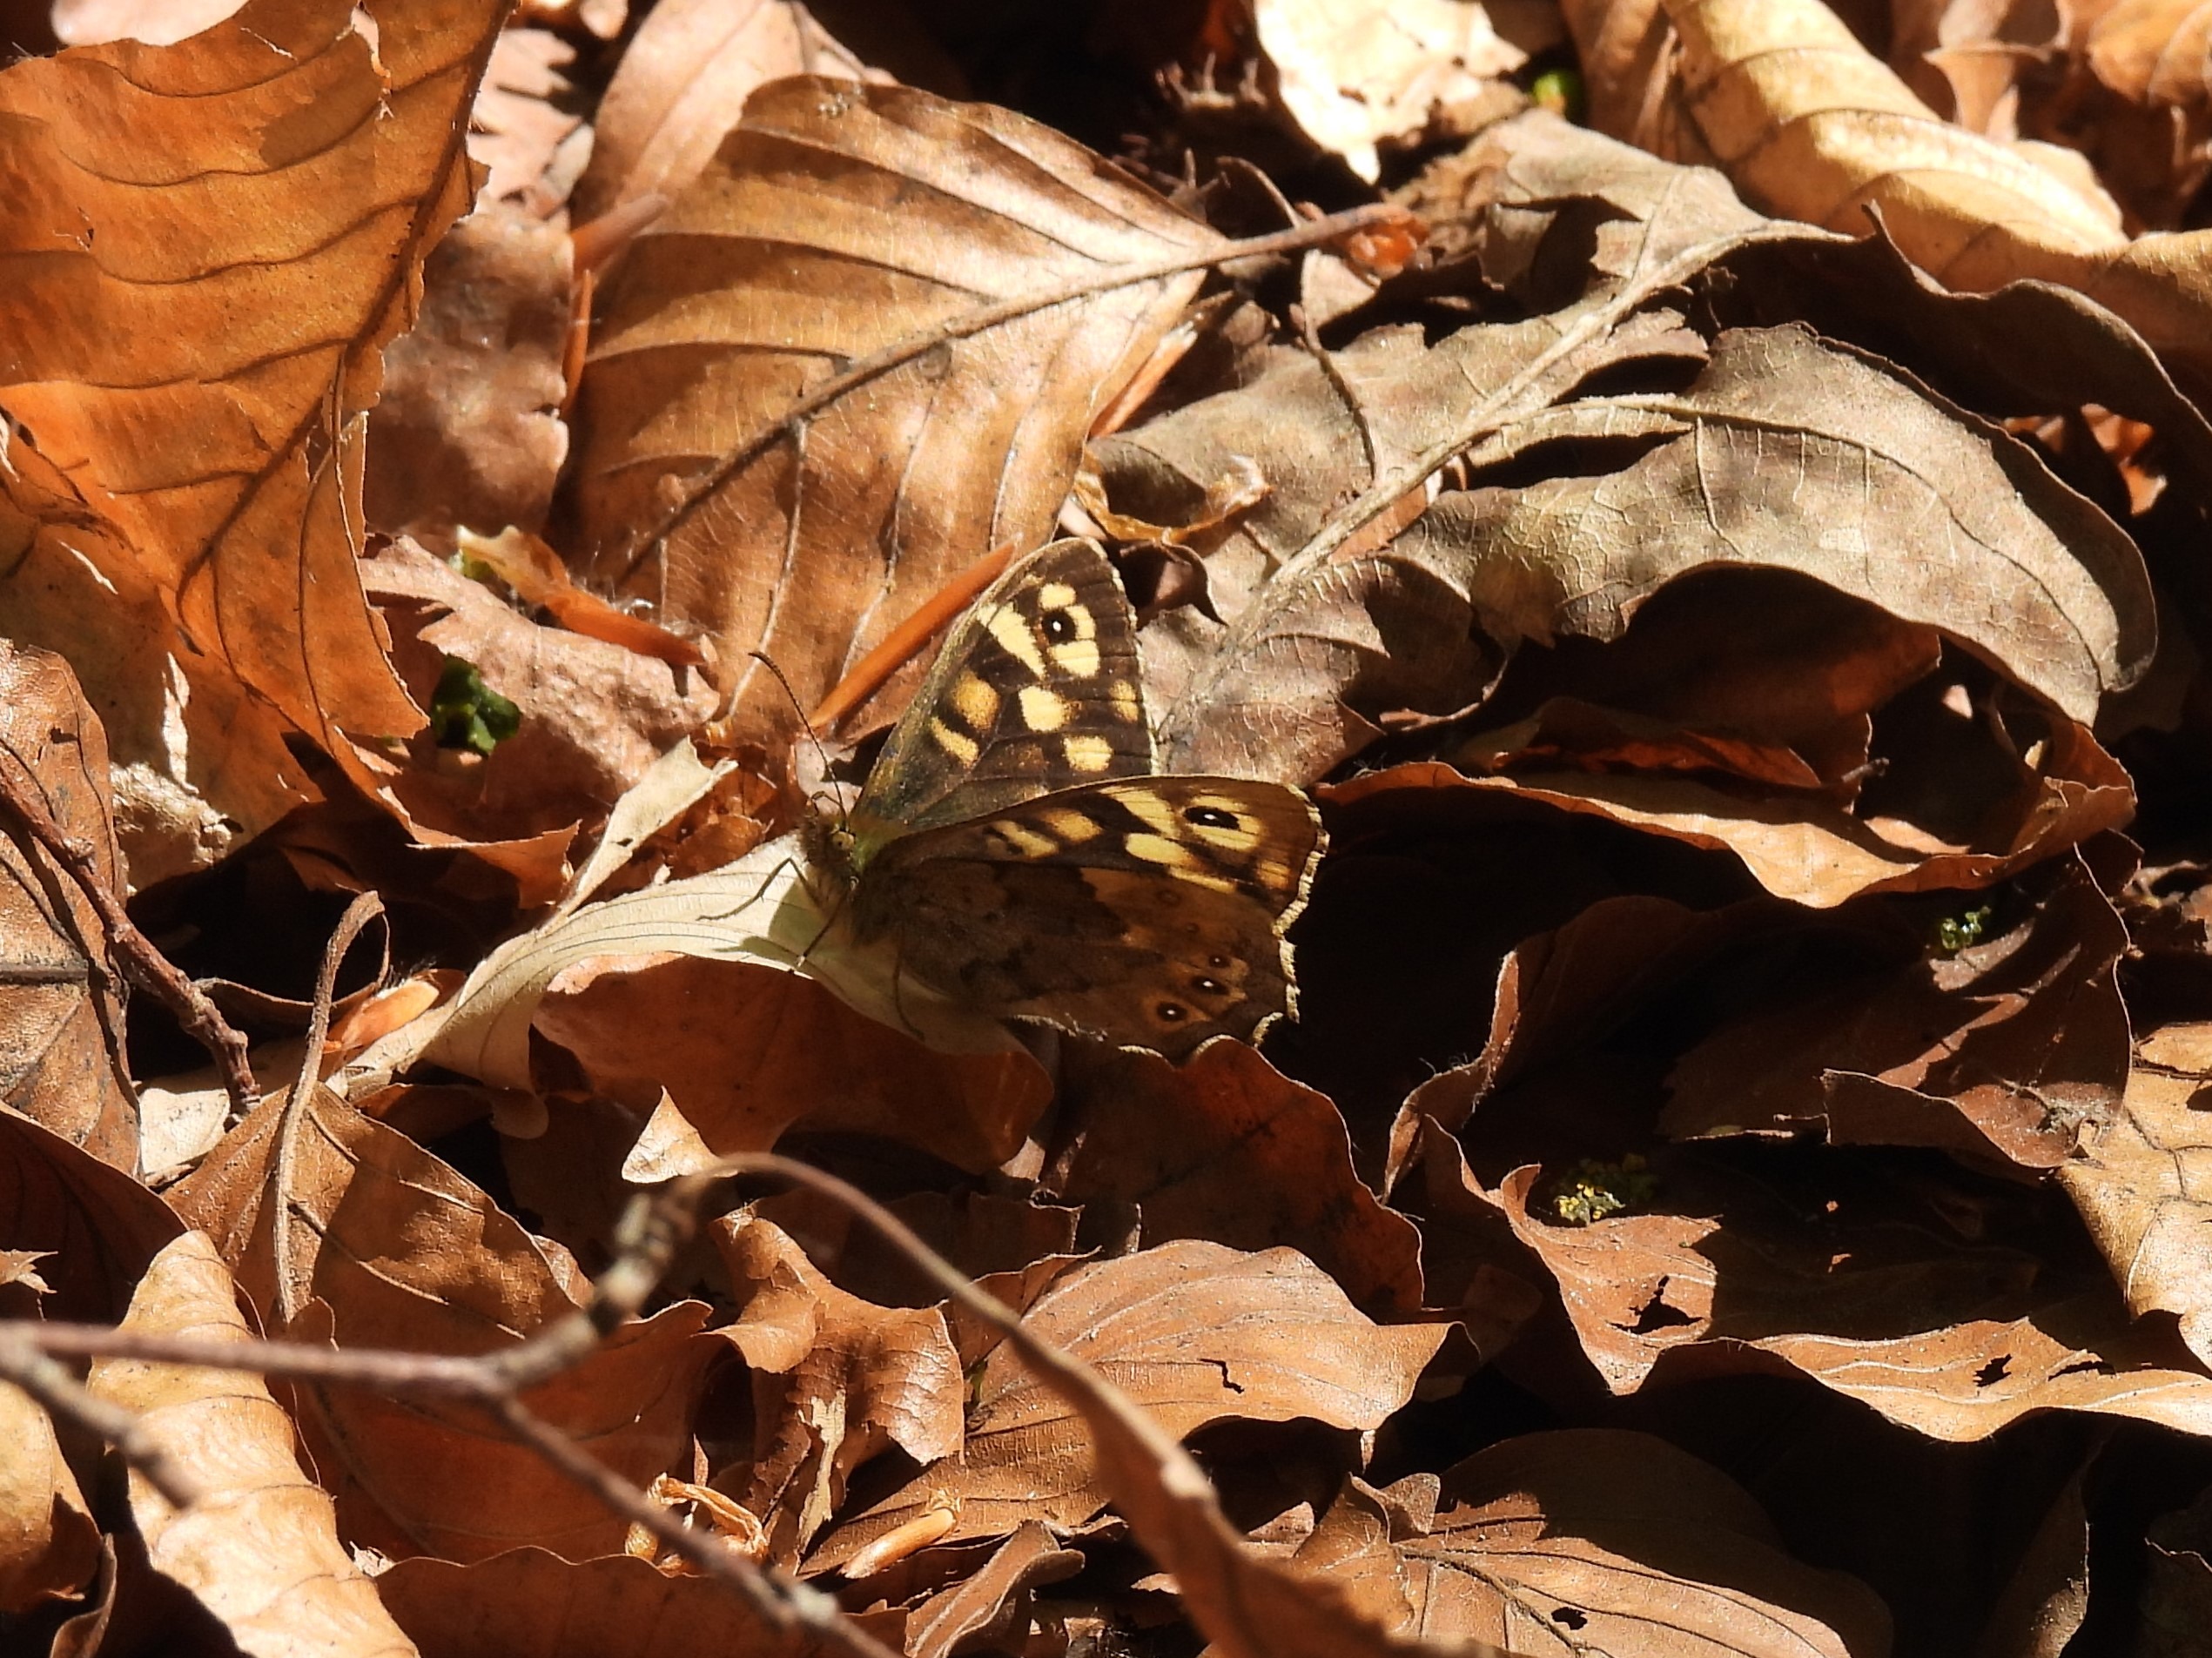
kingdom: Animalia
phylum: Arthropoda
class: Insecta
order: Lepidoptera
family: Nymphalidae
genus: Pararge
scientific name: Pararge aegeria
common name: Skovrandøje
